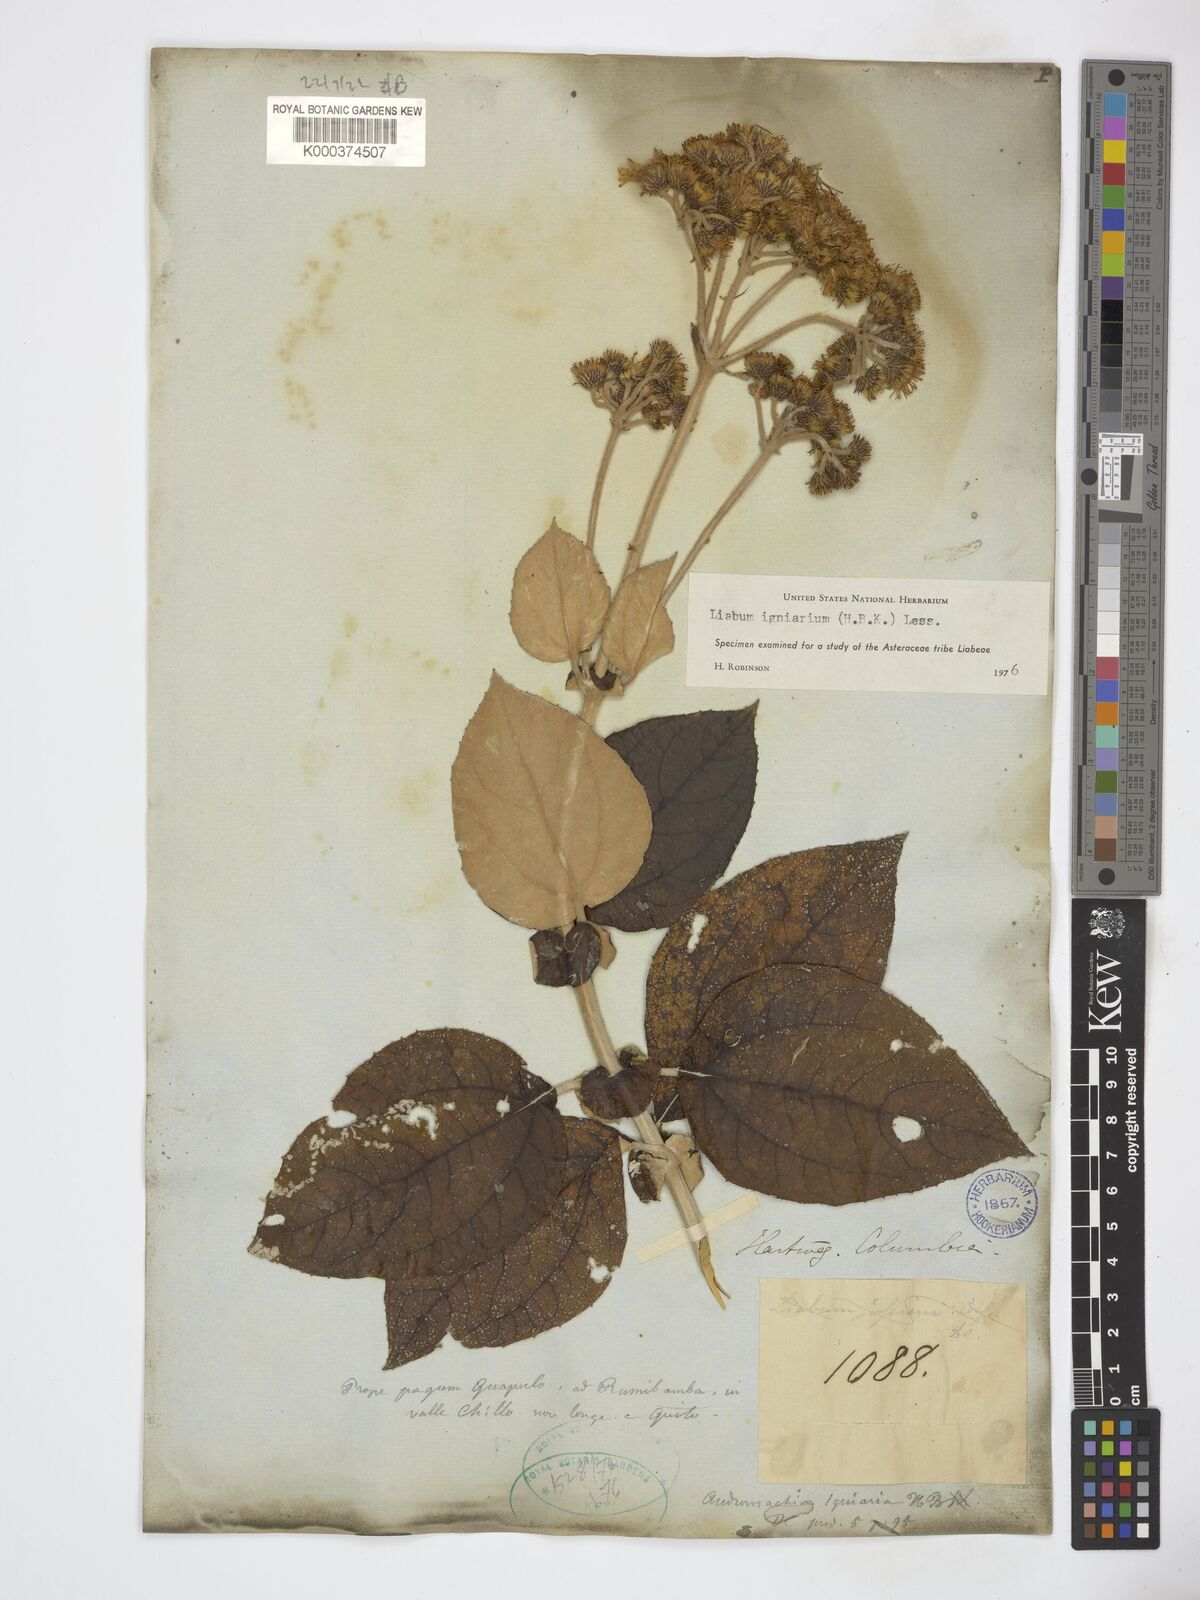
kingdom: Plantae
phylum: Tracheophyta
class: Magnoliopsida
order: Asterales
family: Asteraceae
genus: Liabum
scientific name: Liabum igniarium
